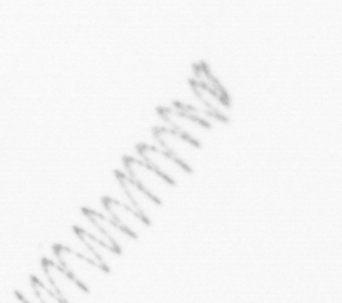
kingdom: Chromista
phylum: Ochrophyta
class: Bacillariophyceae
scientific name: Bacillariophyceae
